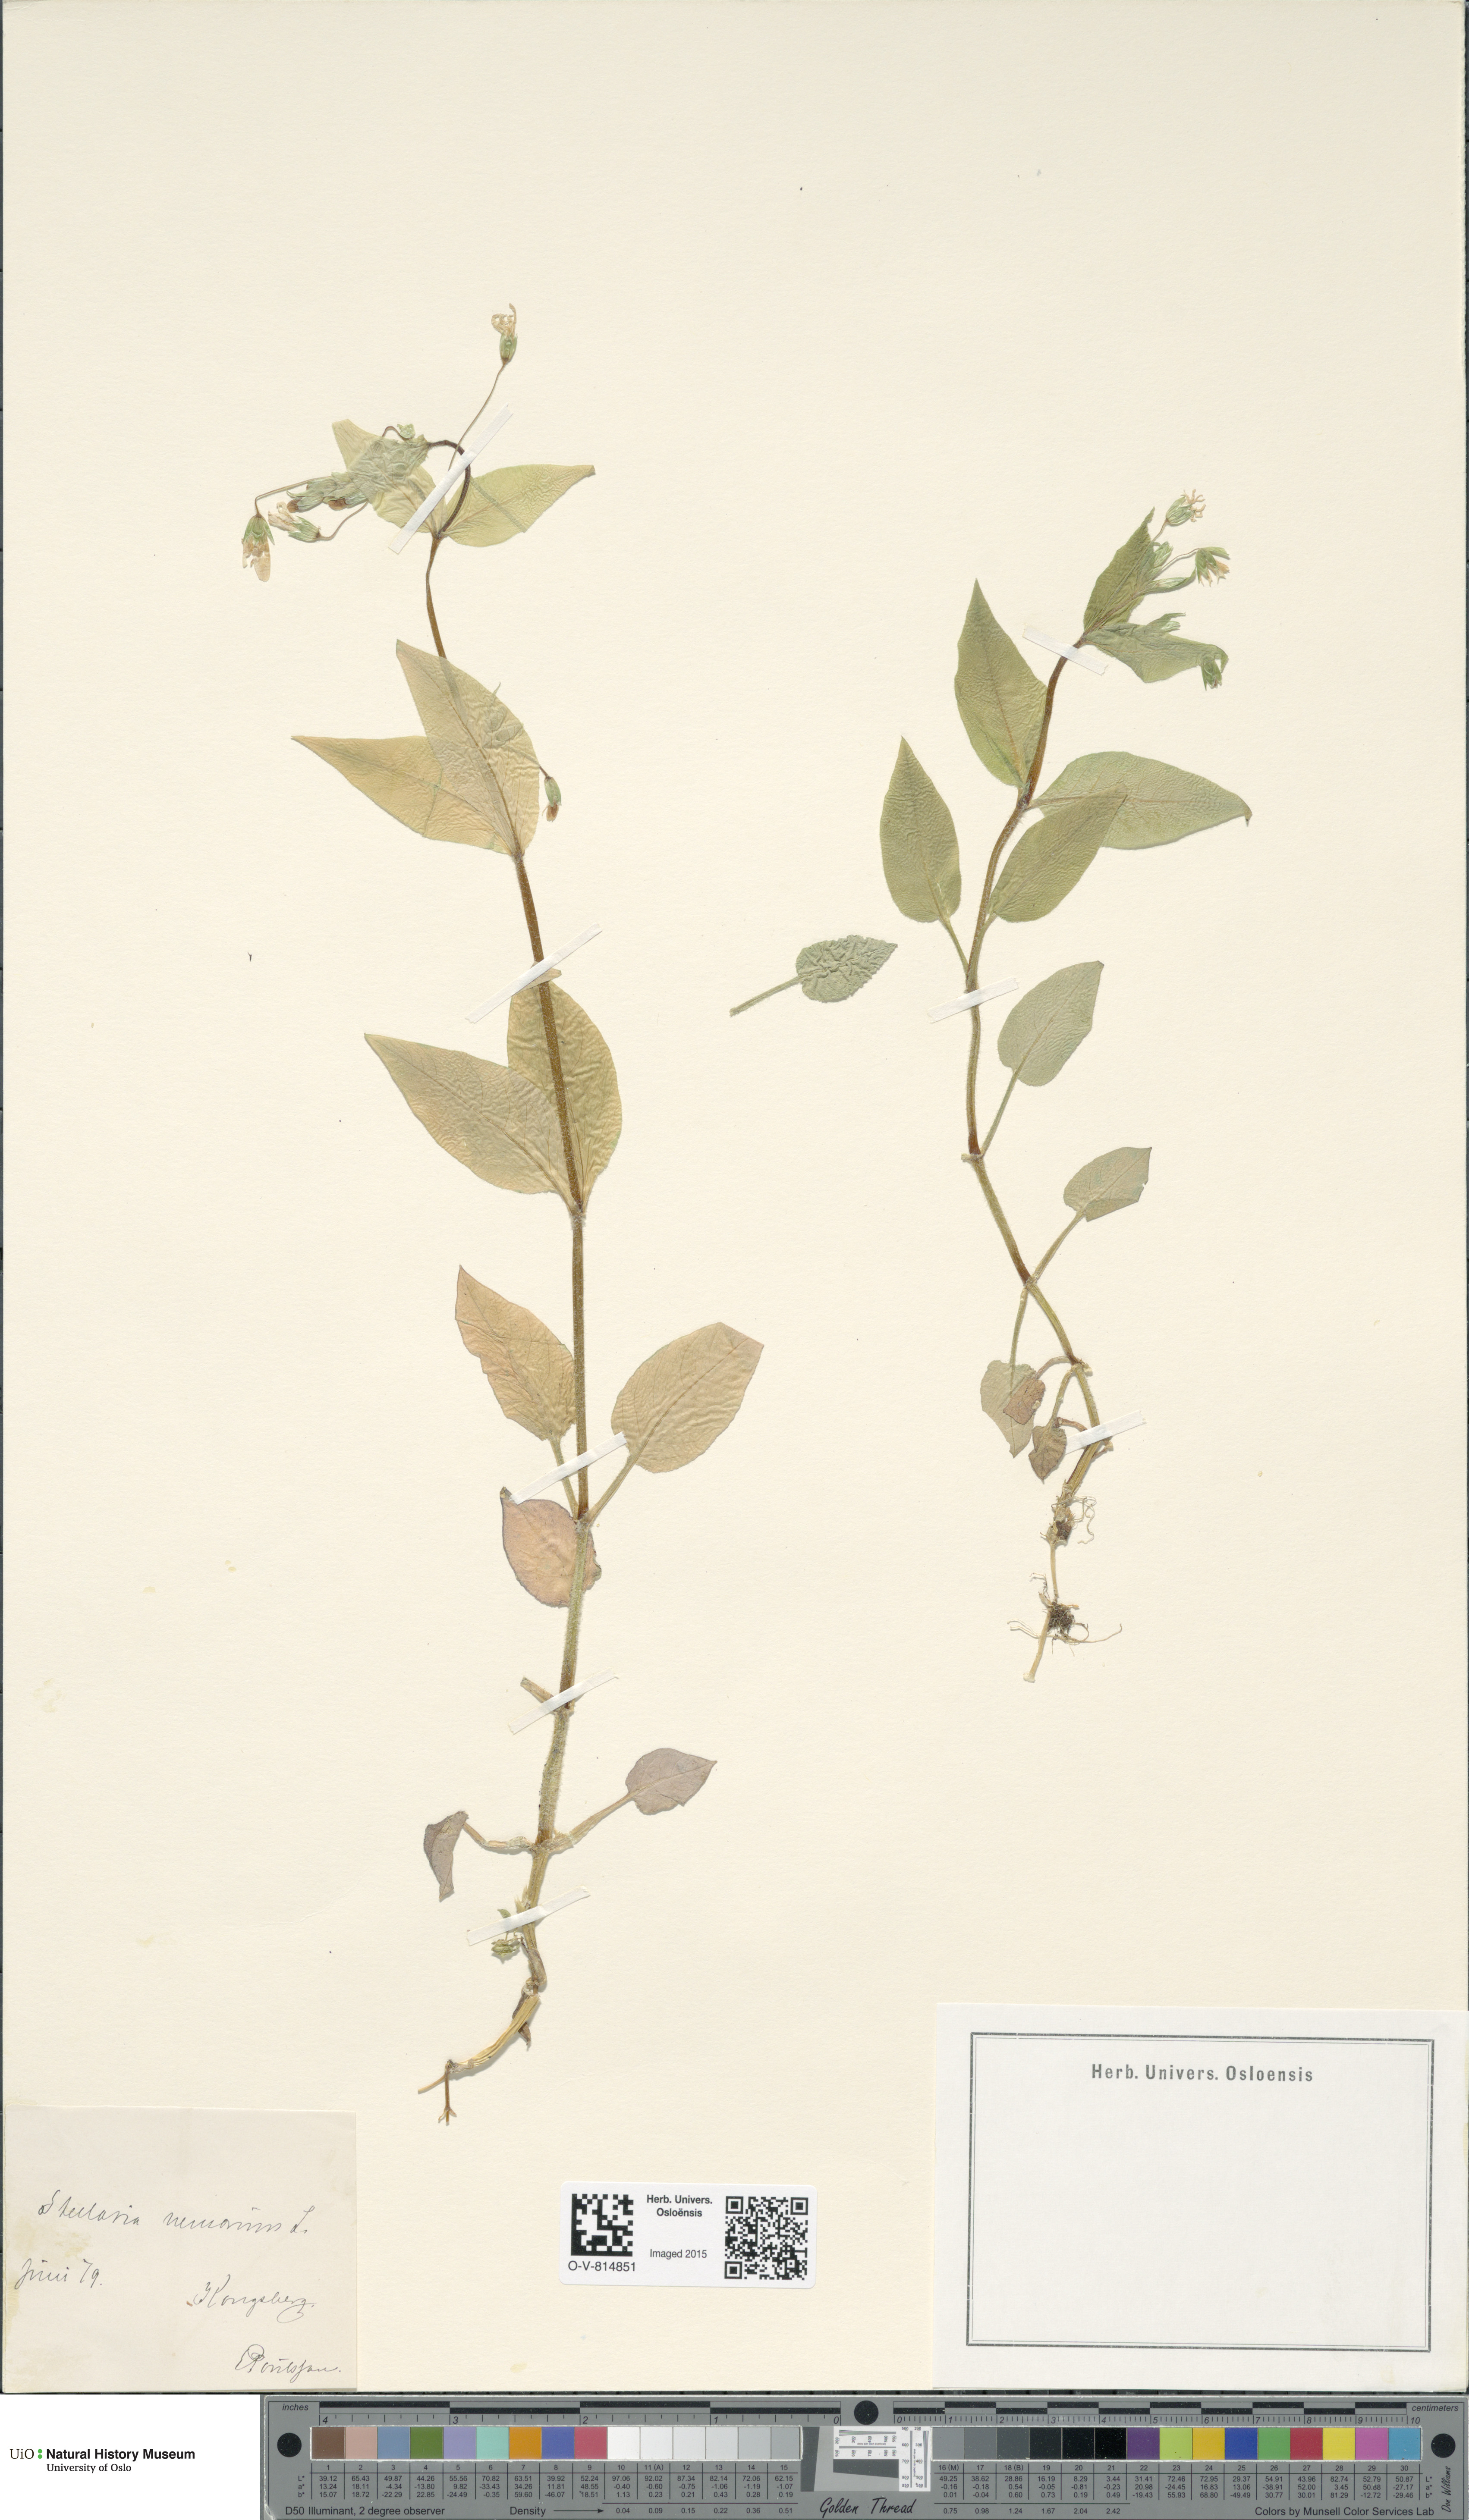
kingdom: Plantae
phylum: Tracheophyta
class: Magnoliopsida
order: Caryophyllales
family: Caryophyllaceae
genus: Stellaria
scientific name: Stellaria nemorum
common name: Wood stitchwort
